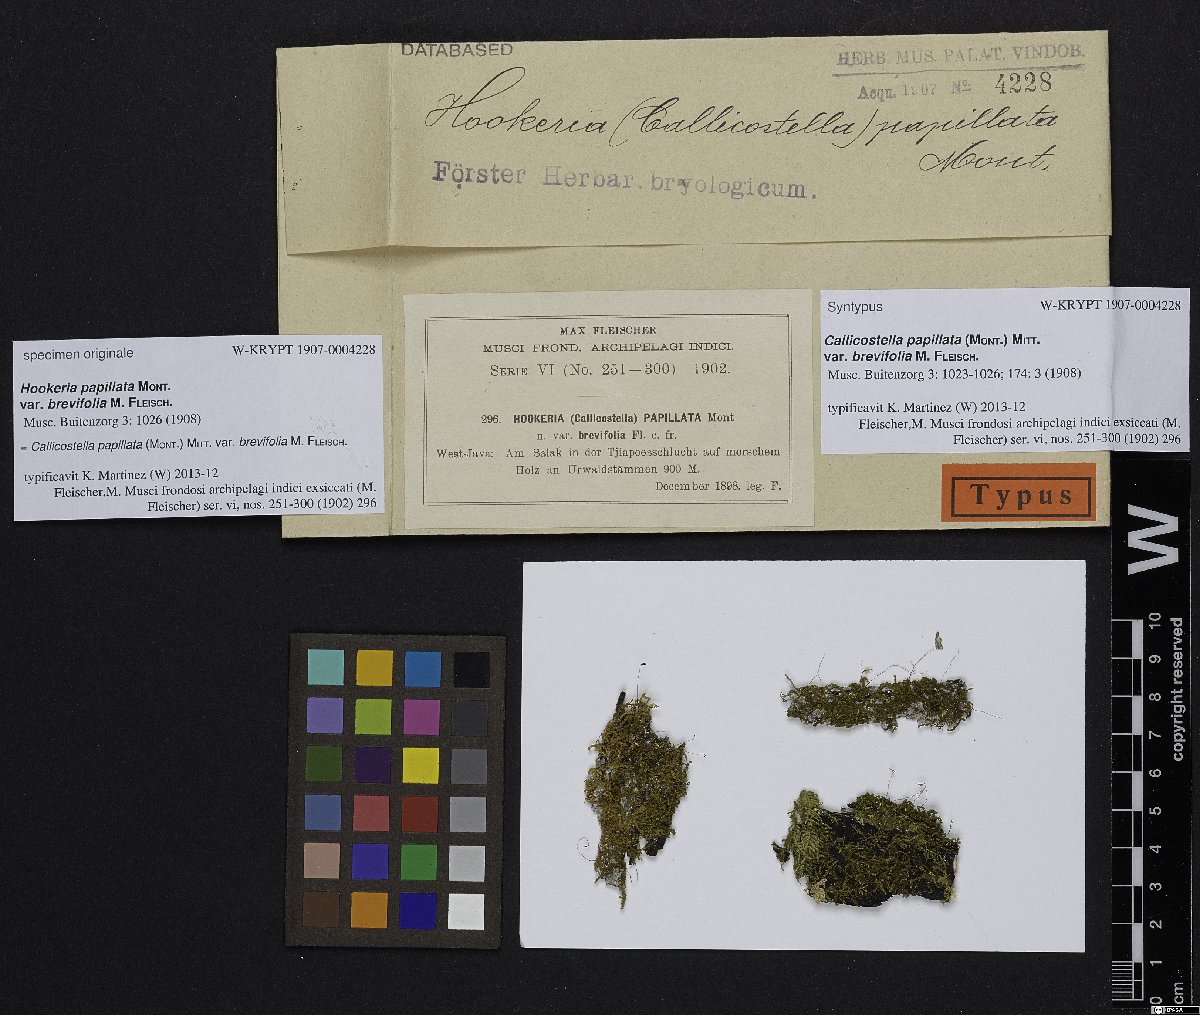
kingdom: Plantae
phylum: Bryophyta
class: Bryopsida
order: Hookeriales
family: Pilotrichaceae
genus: Callicostella
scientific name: Callicostella papillata
